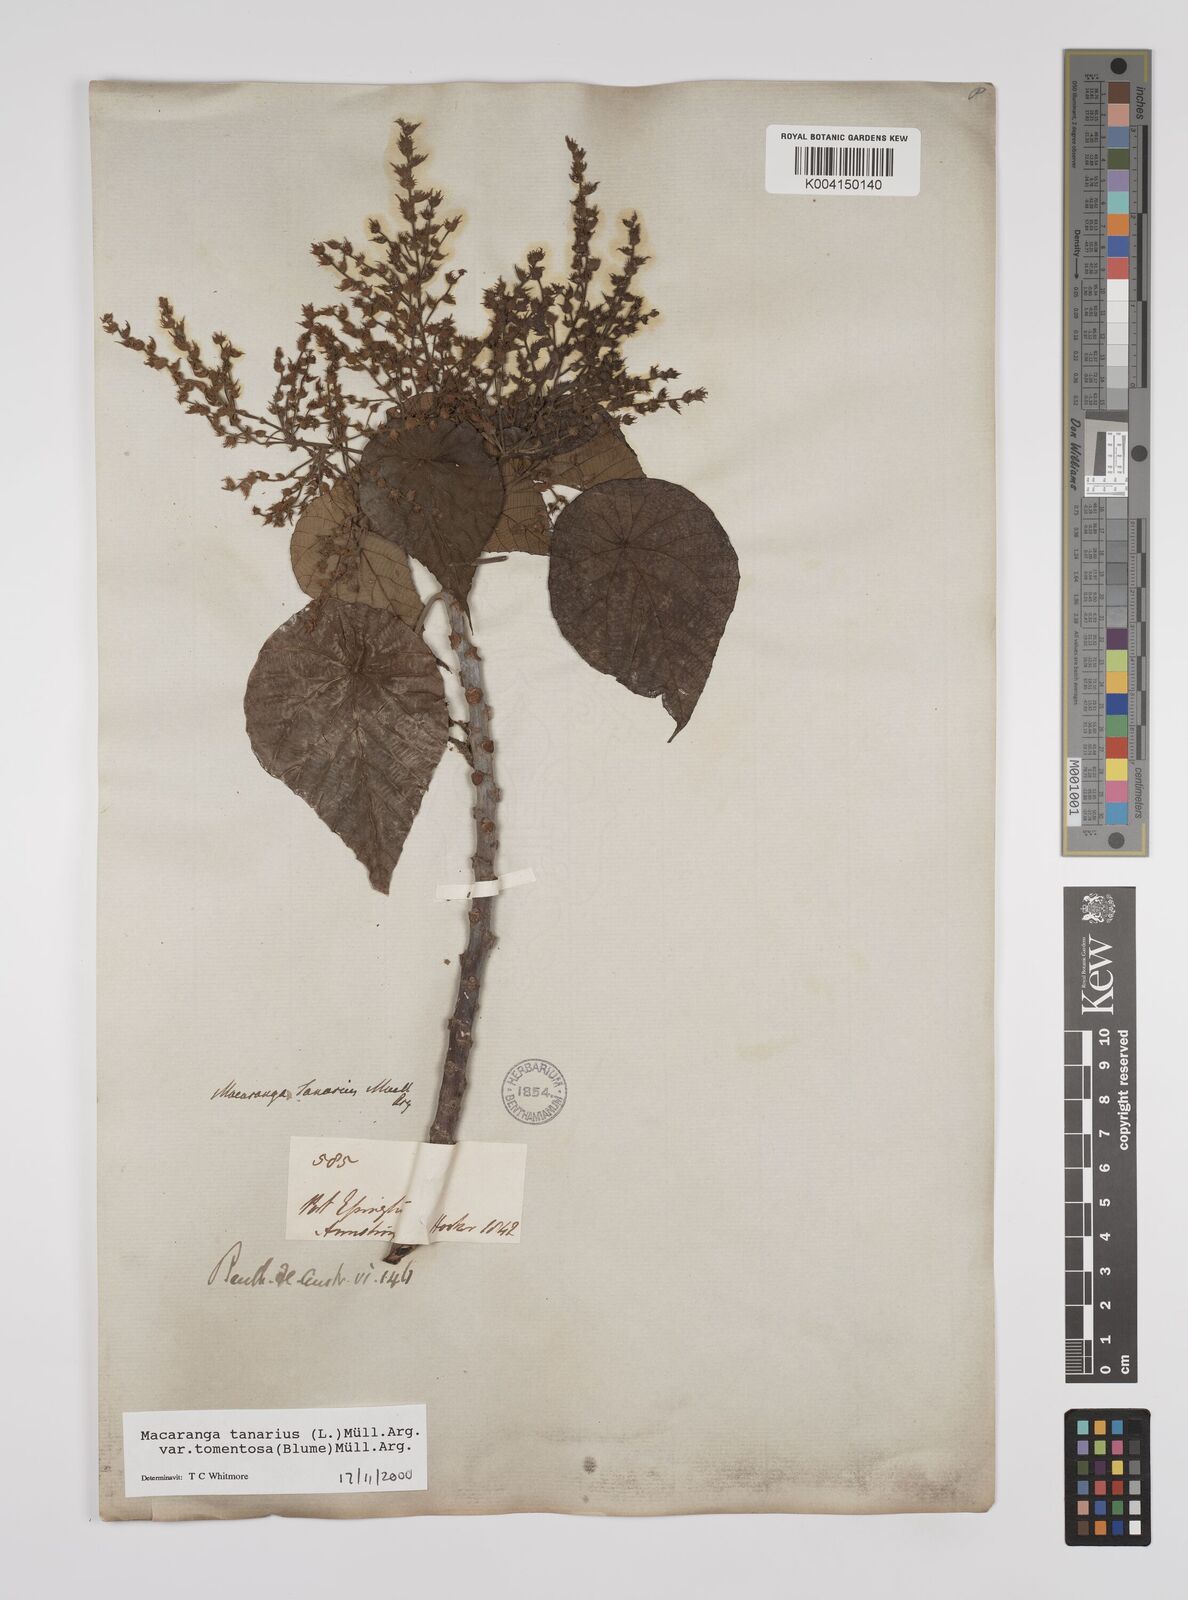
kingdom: Plantae
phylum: Tracheophyta
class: Magnoliopsida
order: Malpighiales
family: Euphorbiaceae
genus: Macaranga
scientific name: Macaranga tanarius
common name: Parasol leaf tree
